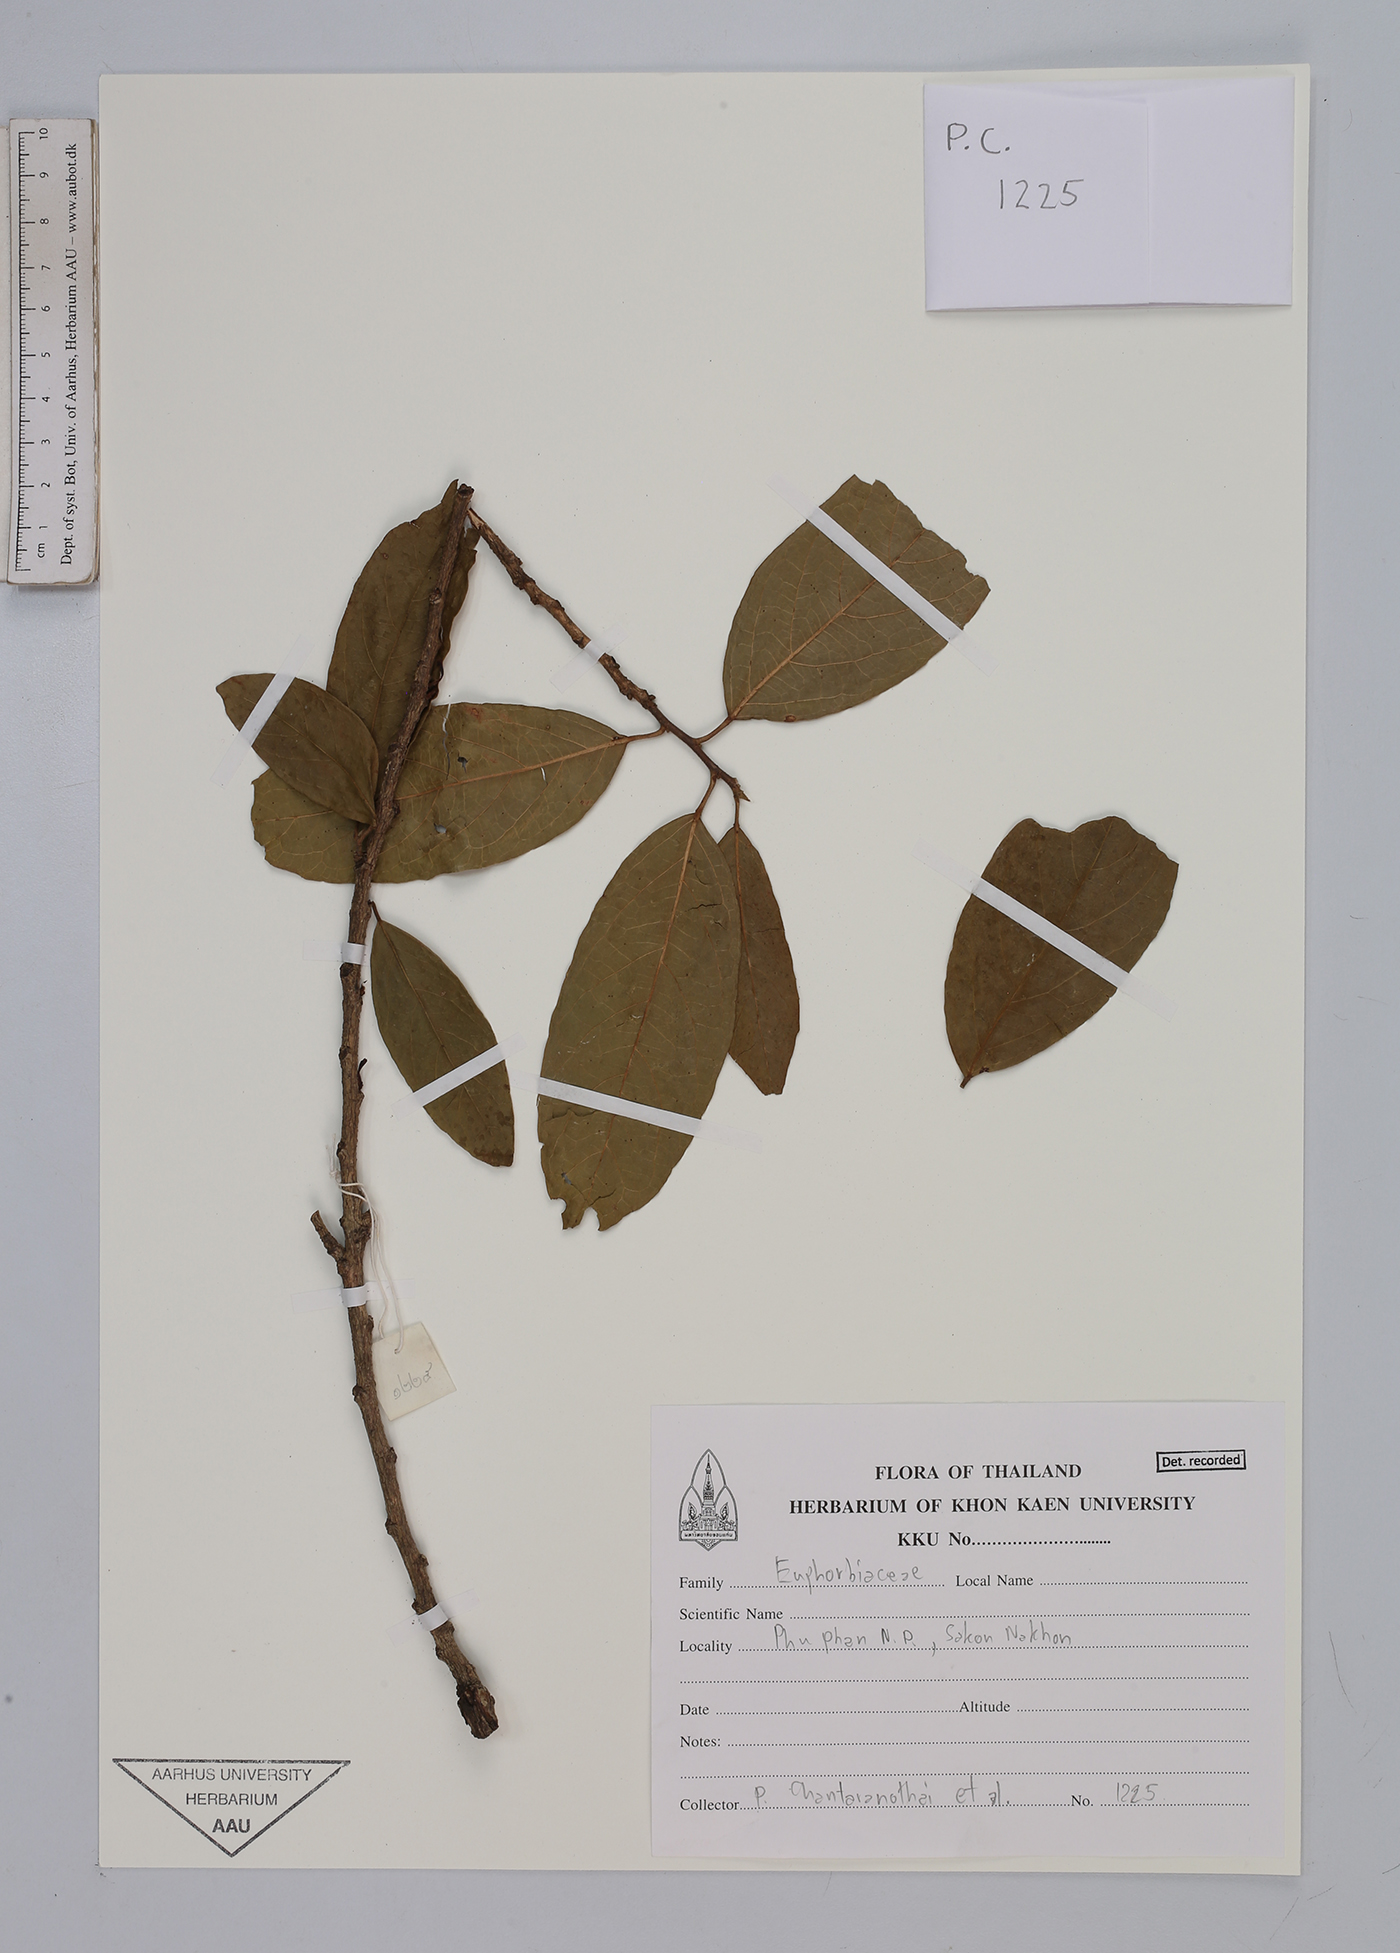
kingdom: Plantae
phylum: Tracheophyta
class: Magnoliopsida
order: Malpighiales
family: Euphorbiaceae
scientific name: Euphorbiaceae
